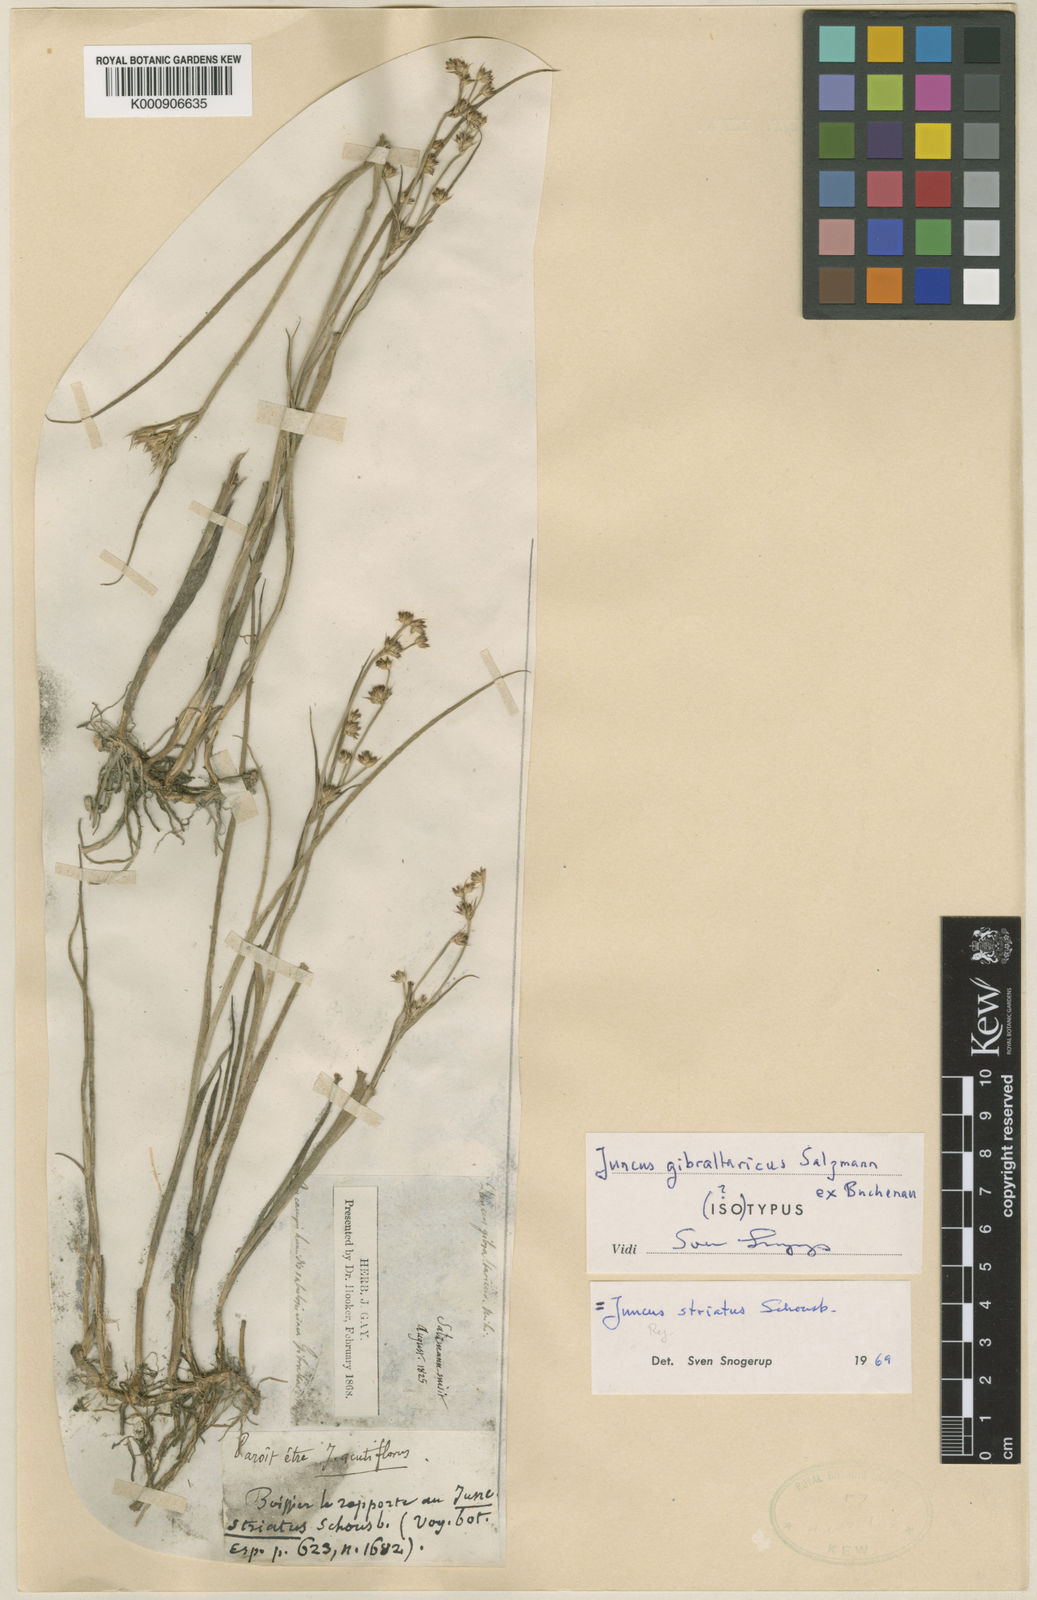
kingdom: Plantae
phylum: Tracheophyta
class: Liliopsida
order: Poales
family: Juncaceae
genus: Juncus
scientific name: Juncus
